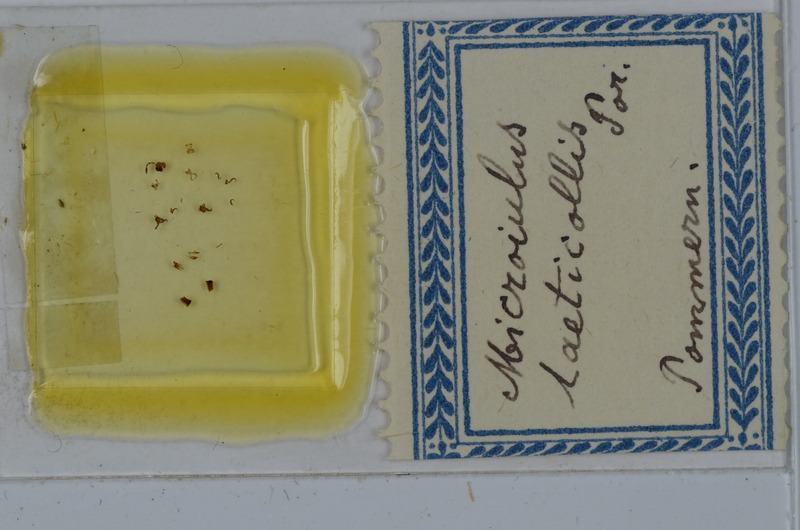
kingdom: Animalia
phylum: Arthropoda
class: Diplopoda
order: Julida
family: Julidae
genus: Microiulus
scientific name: Microiulus laeticollis
